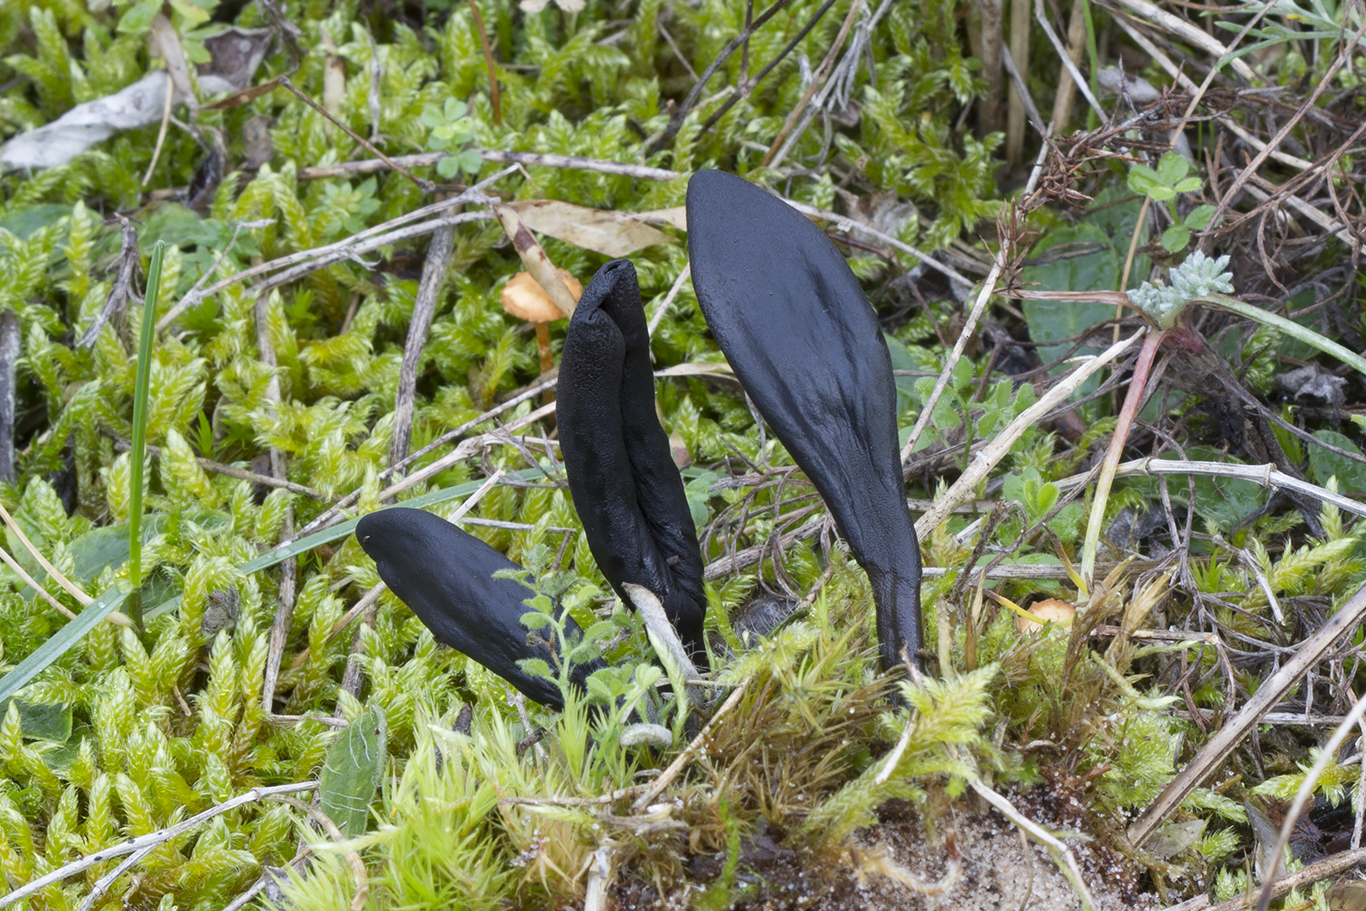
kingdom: Fungi
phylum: Ascomycota
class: Geoglossomycetes
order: Geoglossales
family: Geoglossaceae
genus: Geoglossum
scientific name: Geoglossum cookeianum
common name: bred jordtunge
